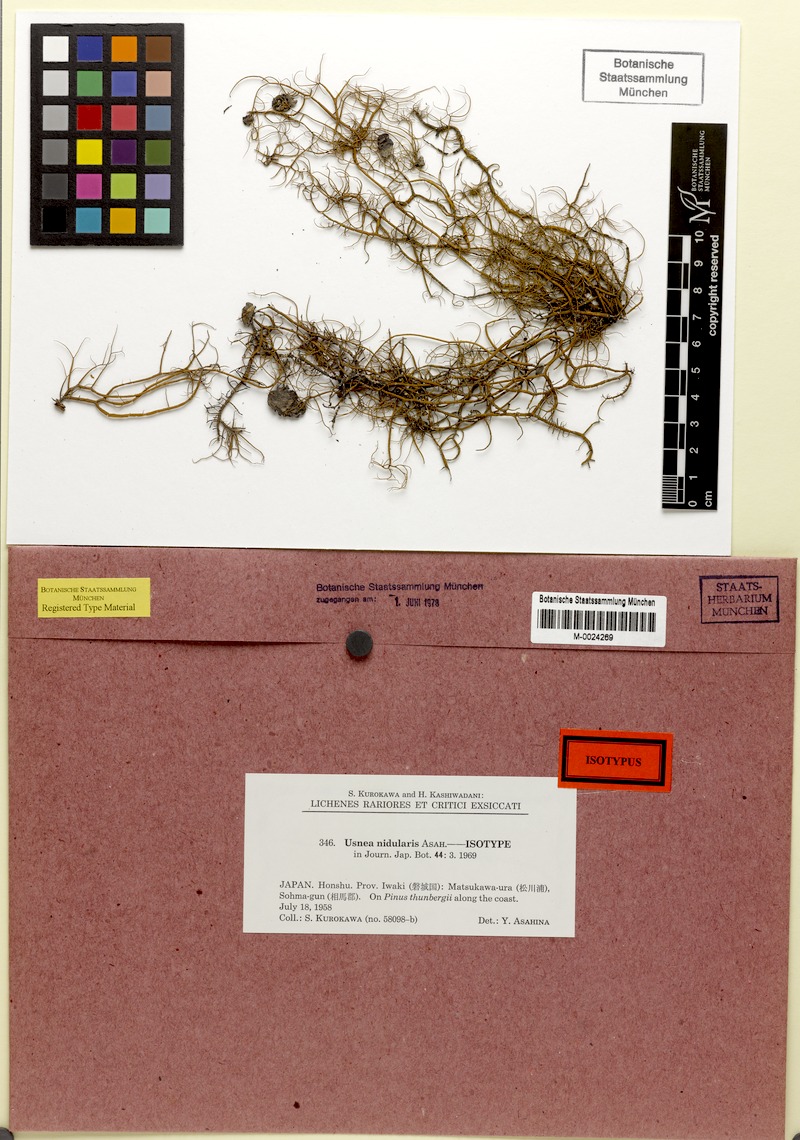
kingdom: Fungi
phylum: Ascomycota
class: Lecanoromycetes
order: Lecanorales
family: Parmeliaceae
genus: Usnea
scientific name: Usnea nidularis
